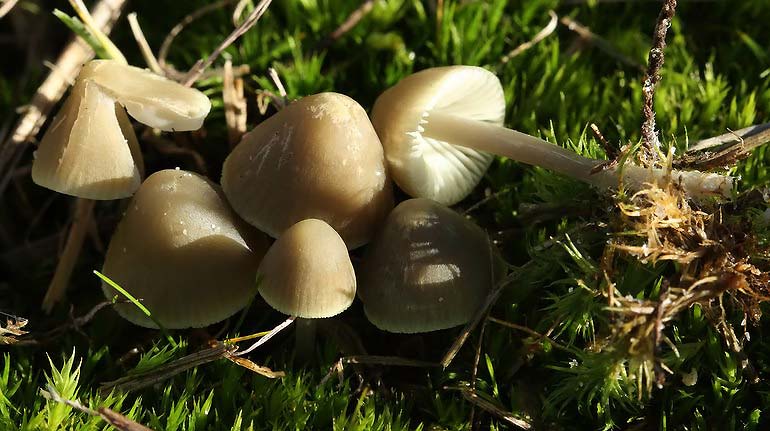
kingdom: Fungi
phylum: Basidiomycota
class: Agaricomycetes
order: Agaricales
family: Mycenaceae
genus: Mycena
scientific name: Mycena chlorantha
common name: klit-huesvamp
